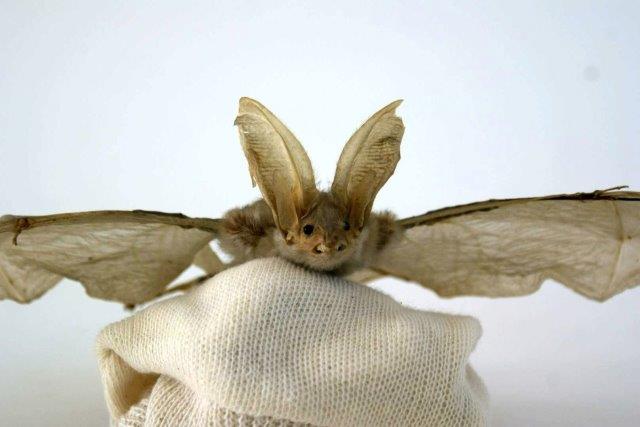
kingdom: Animalia
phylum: Chordata
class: Mammalia
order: Chiroptera
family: Vespertilionidae
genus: Plecotus
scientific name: Plecotus auritus
